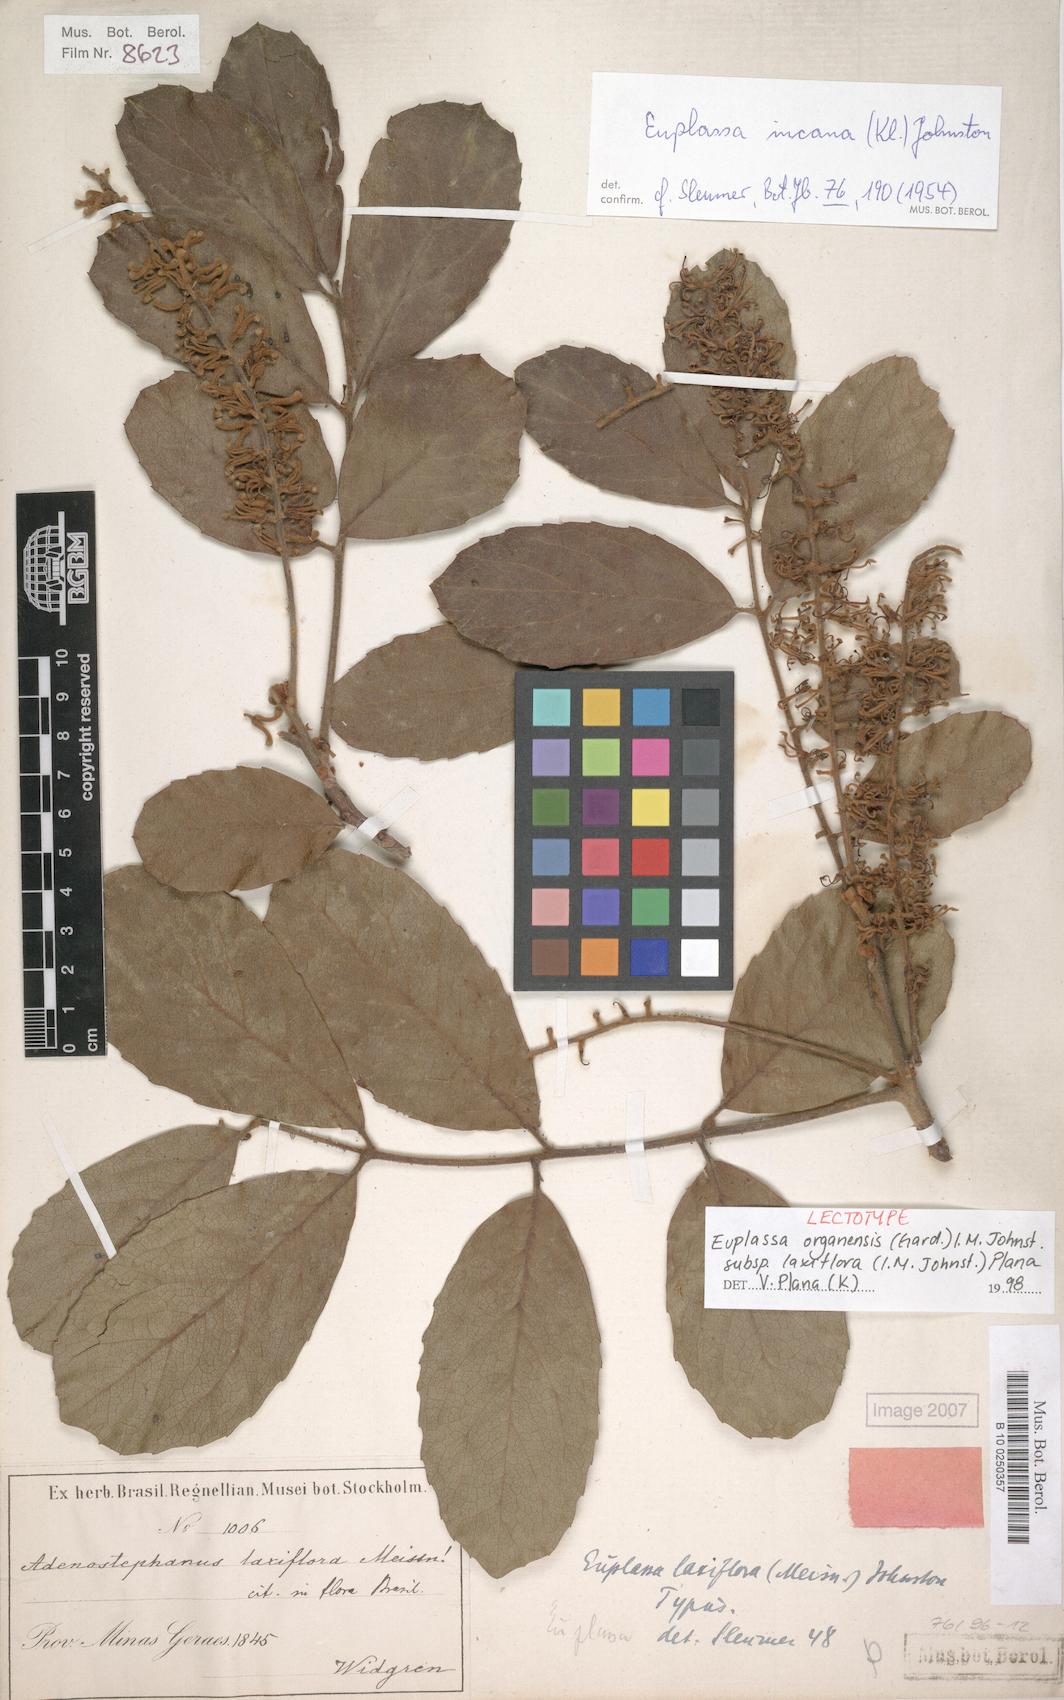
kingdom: Plantae
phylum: Tracheophyta
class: Magnoliopsida
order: Proteales
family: Proteaceae
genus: Euplassa
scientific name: Euplassa organensis
